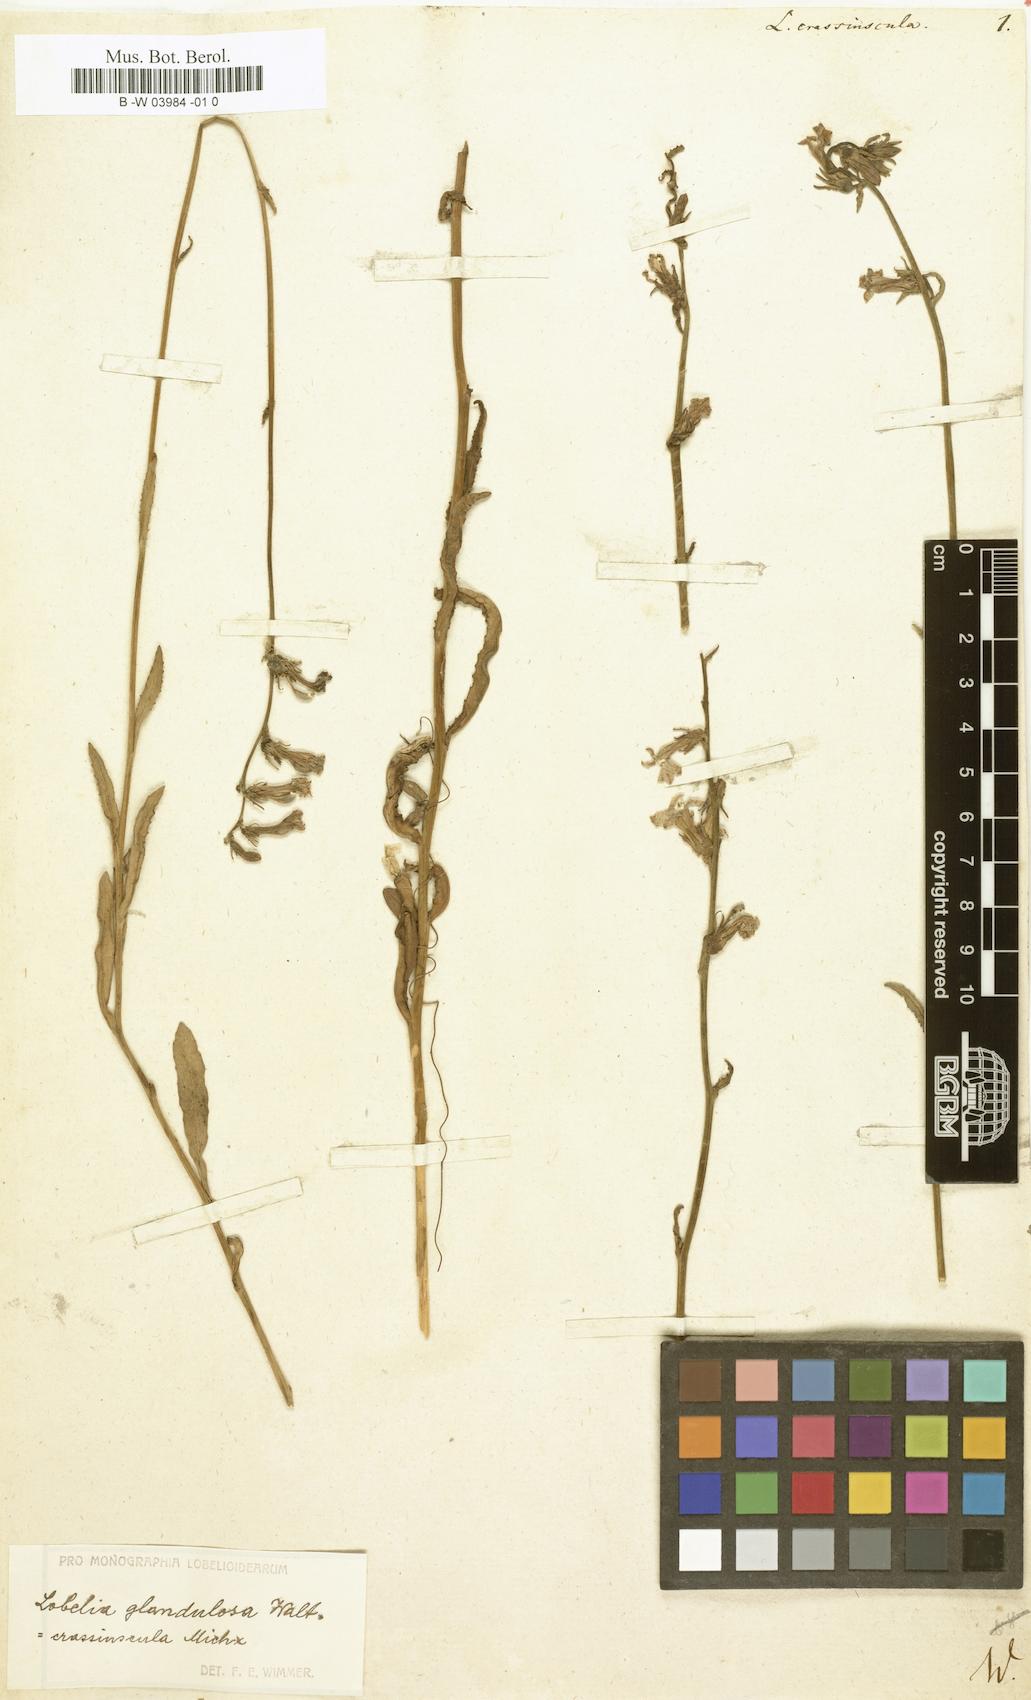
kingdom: Plantae
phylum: Tracheophyta
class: Magnoliopsida
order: Asterales
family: Campanulaceae
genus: Lobelia
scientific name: Lobelia glandulosa
